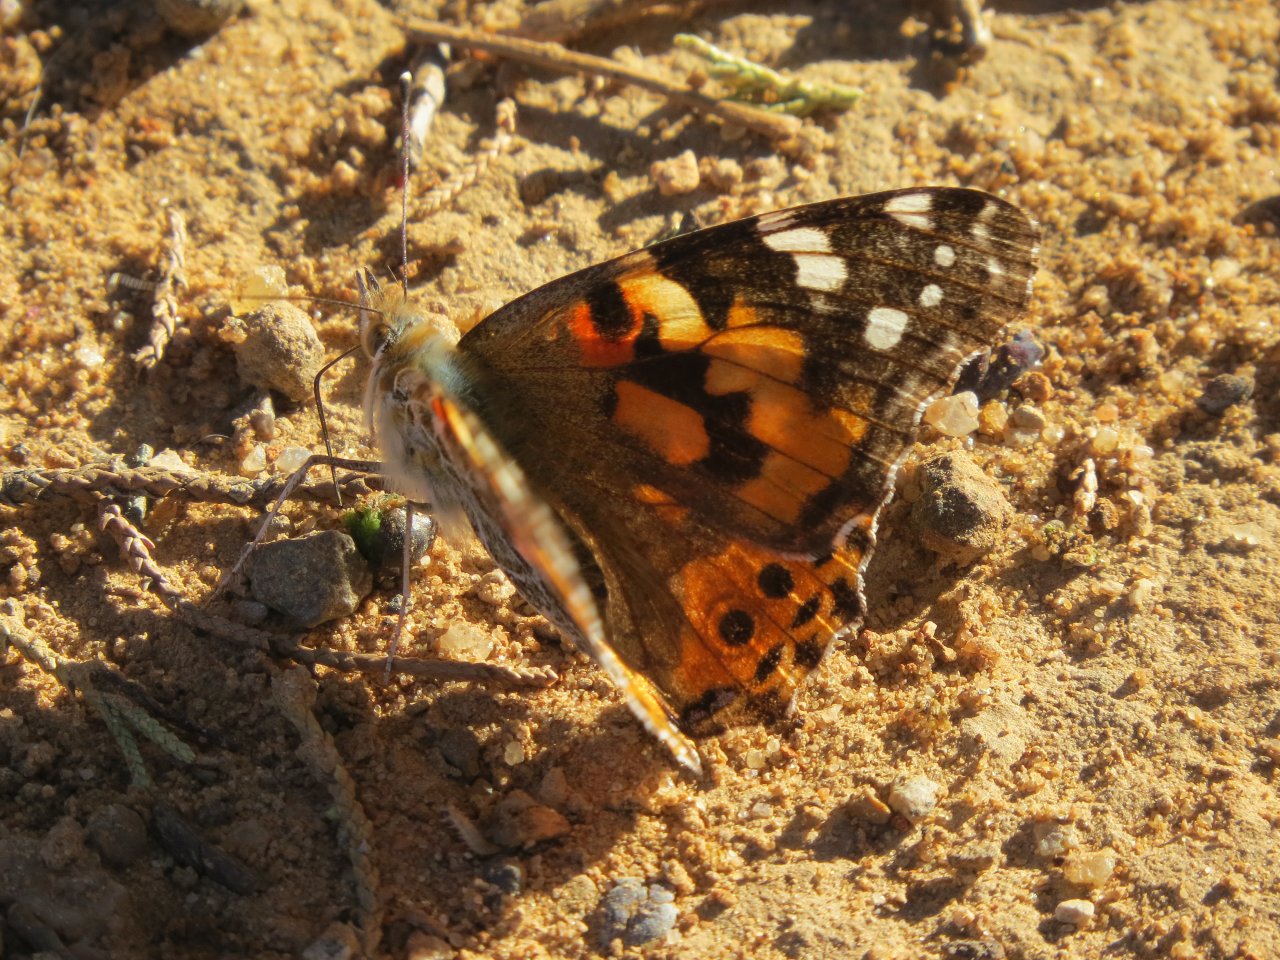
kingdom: Animalia
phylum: Arthropoda
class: Insecta
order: Lepidoptera
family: Nymphalidae
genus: Vanessa
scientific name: Vanessa cardui
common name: Painted Lady
